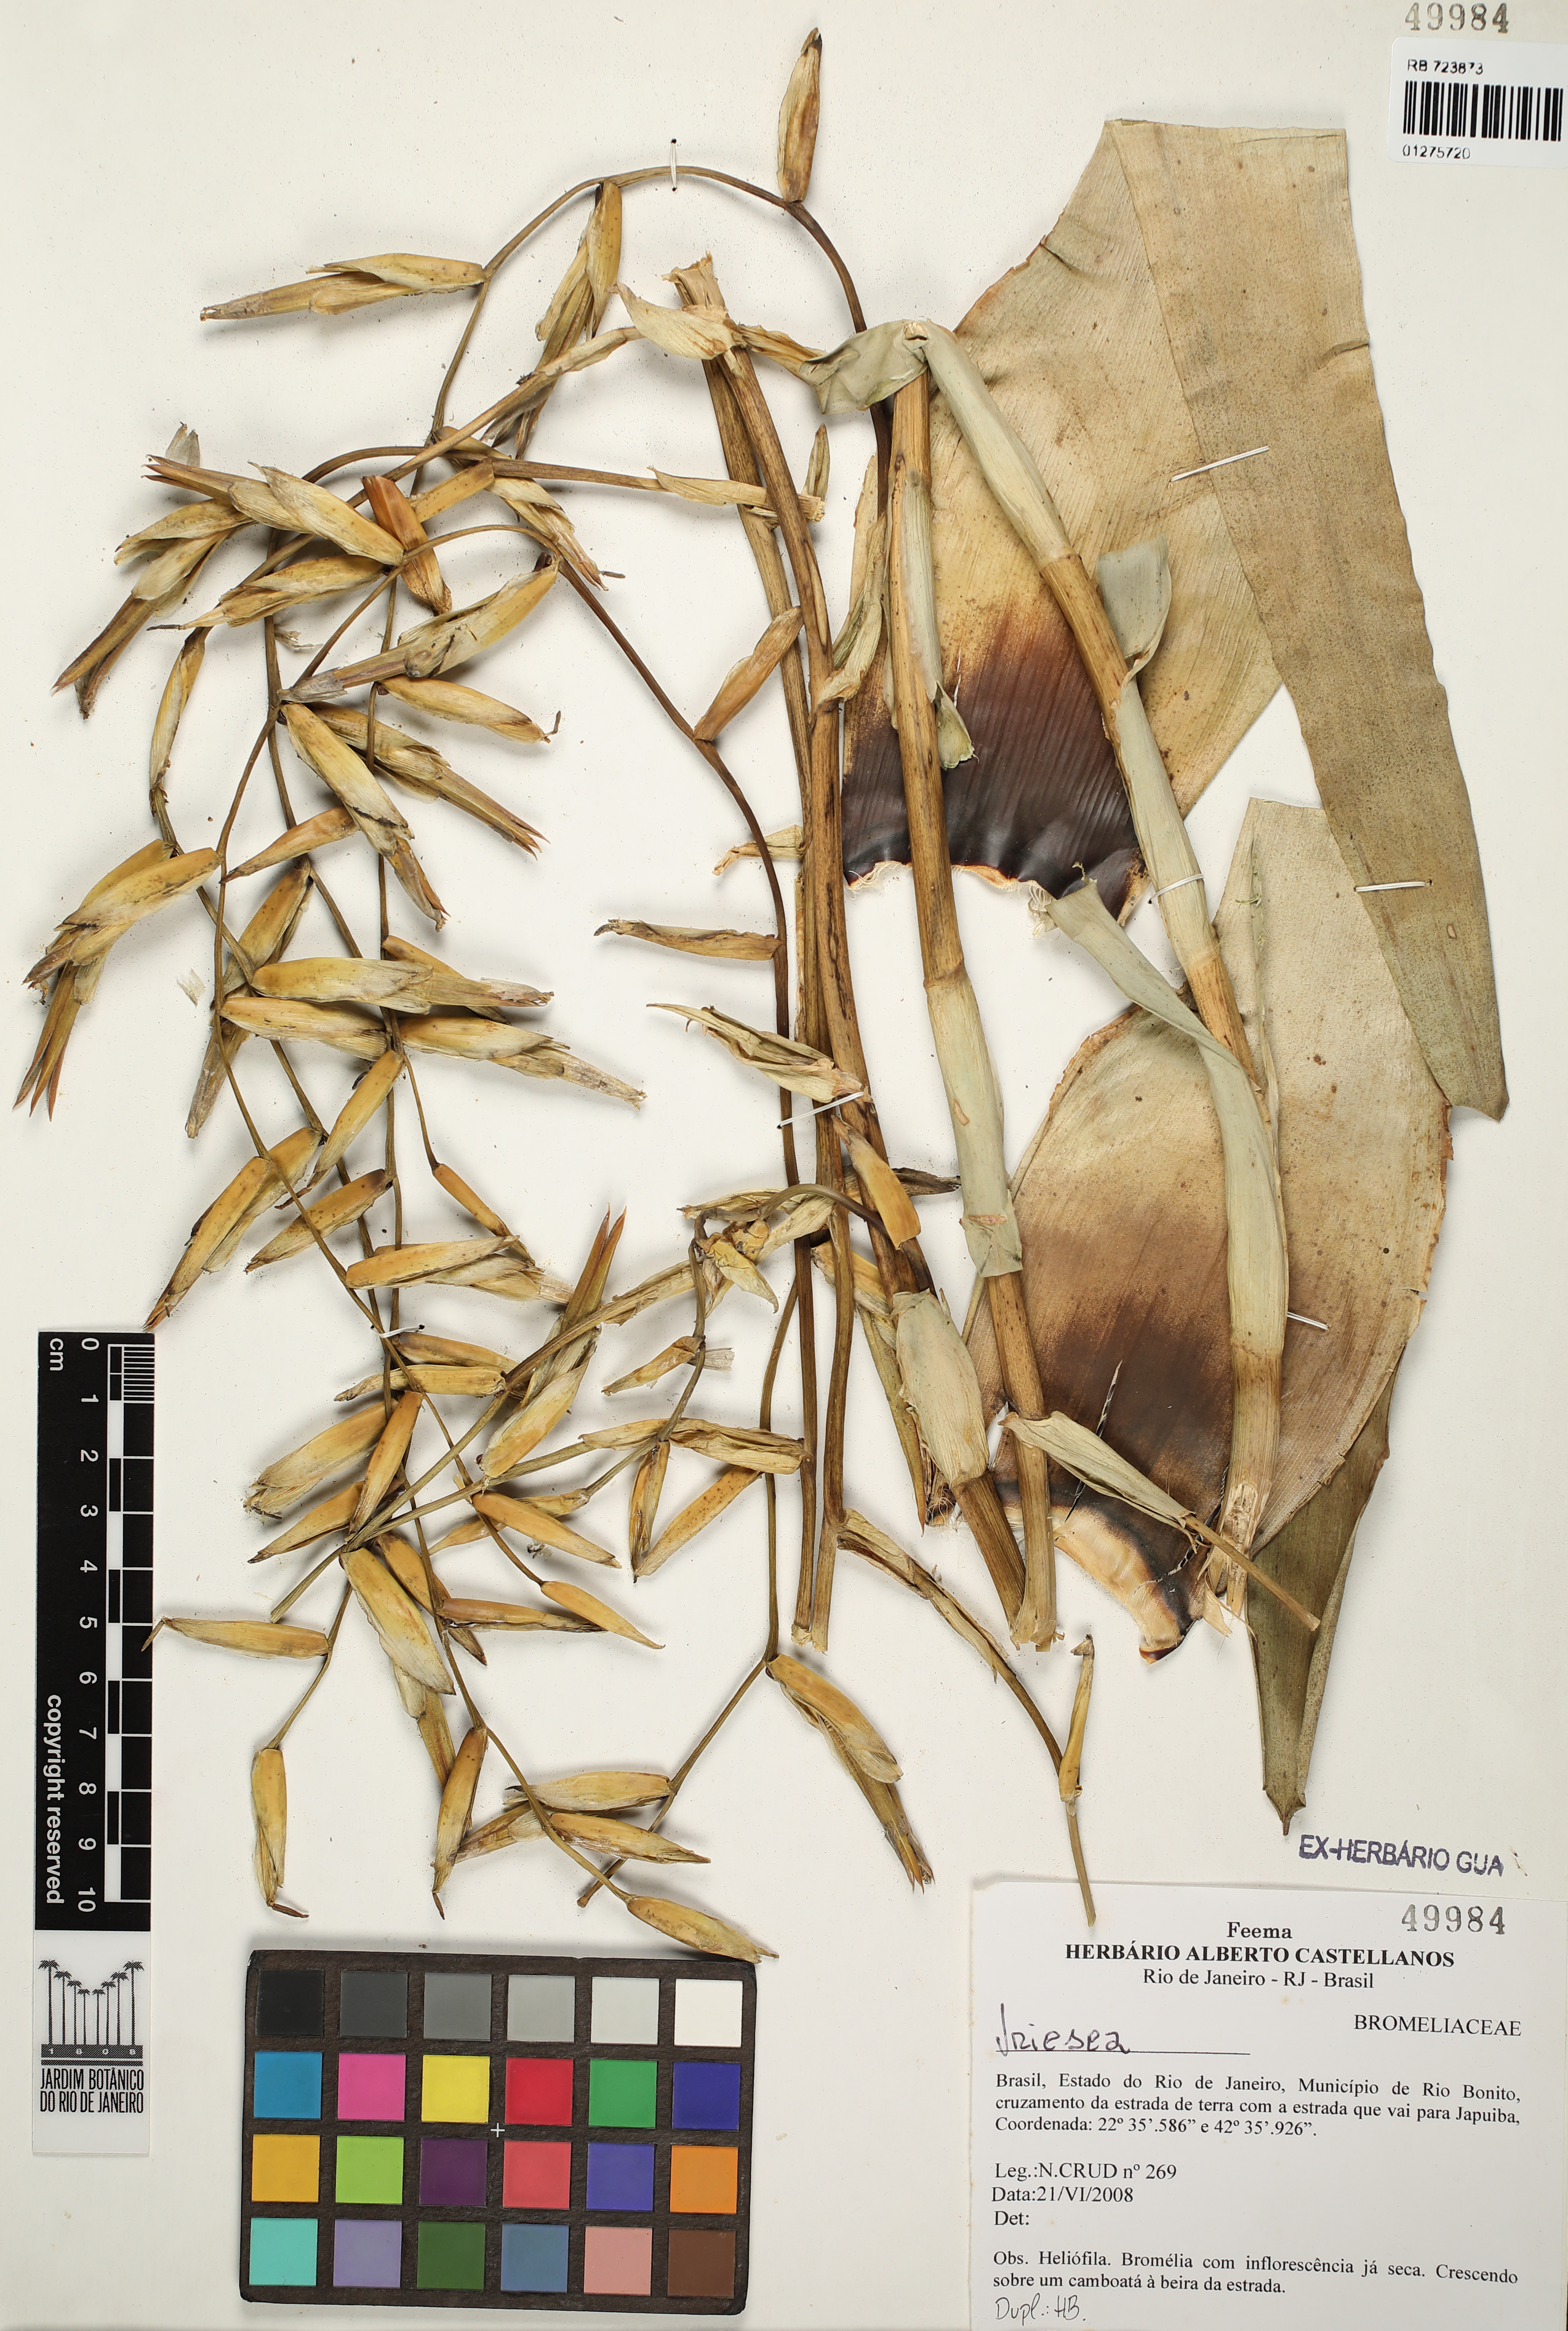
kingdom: Plantae
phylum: Tracheophyta
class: Liliopsida
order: Poales
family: Bromeliaceae
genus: Vriesea
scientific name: Vriesea
